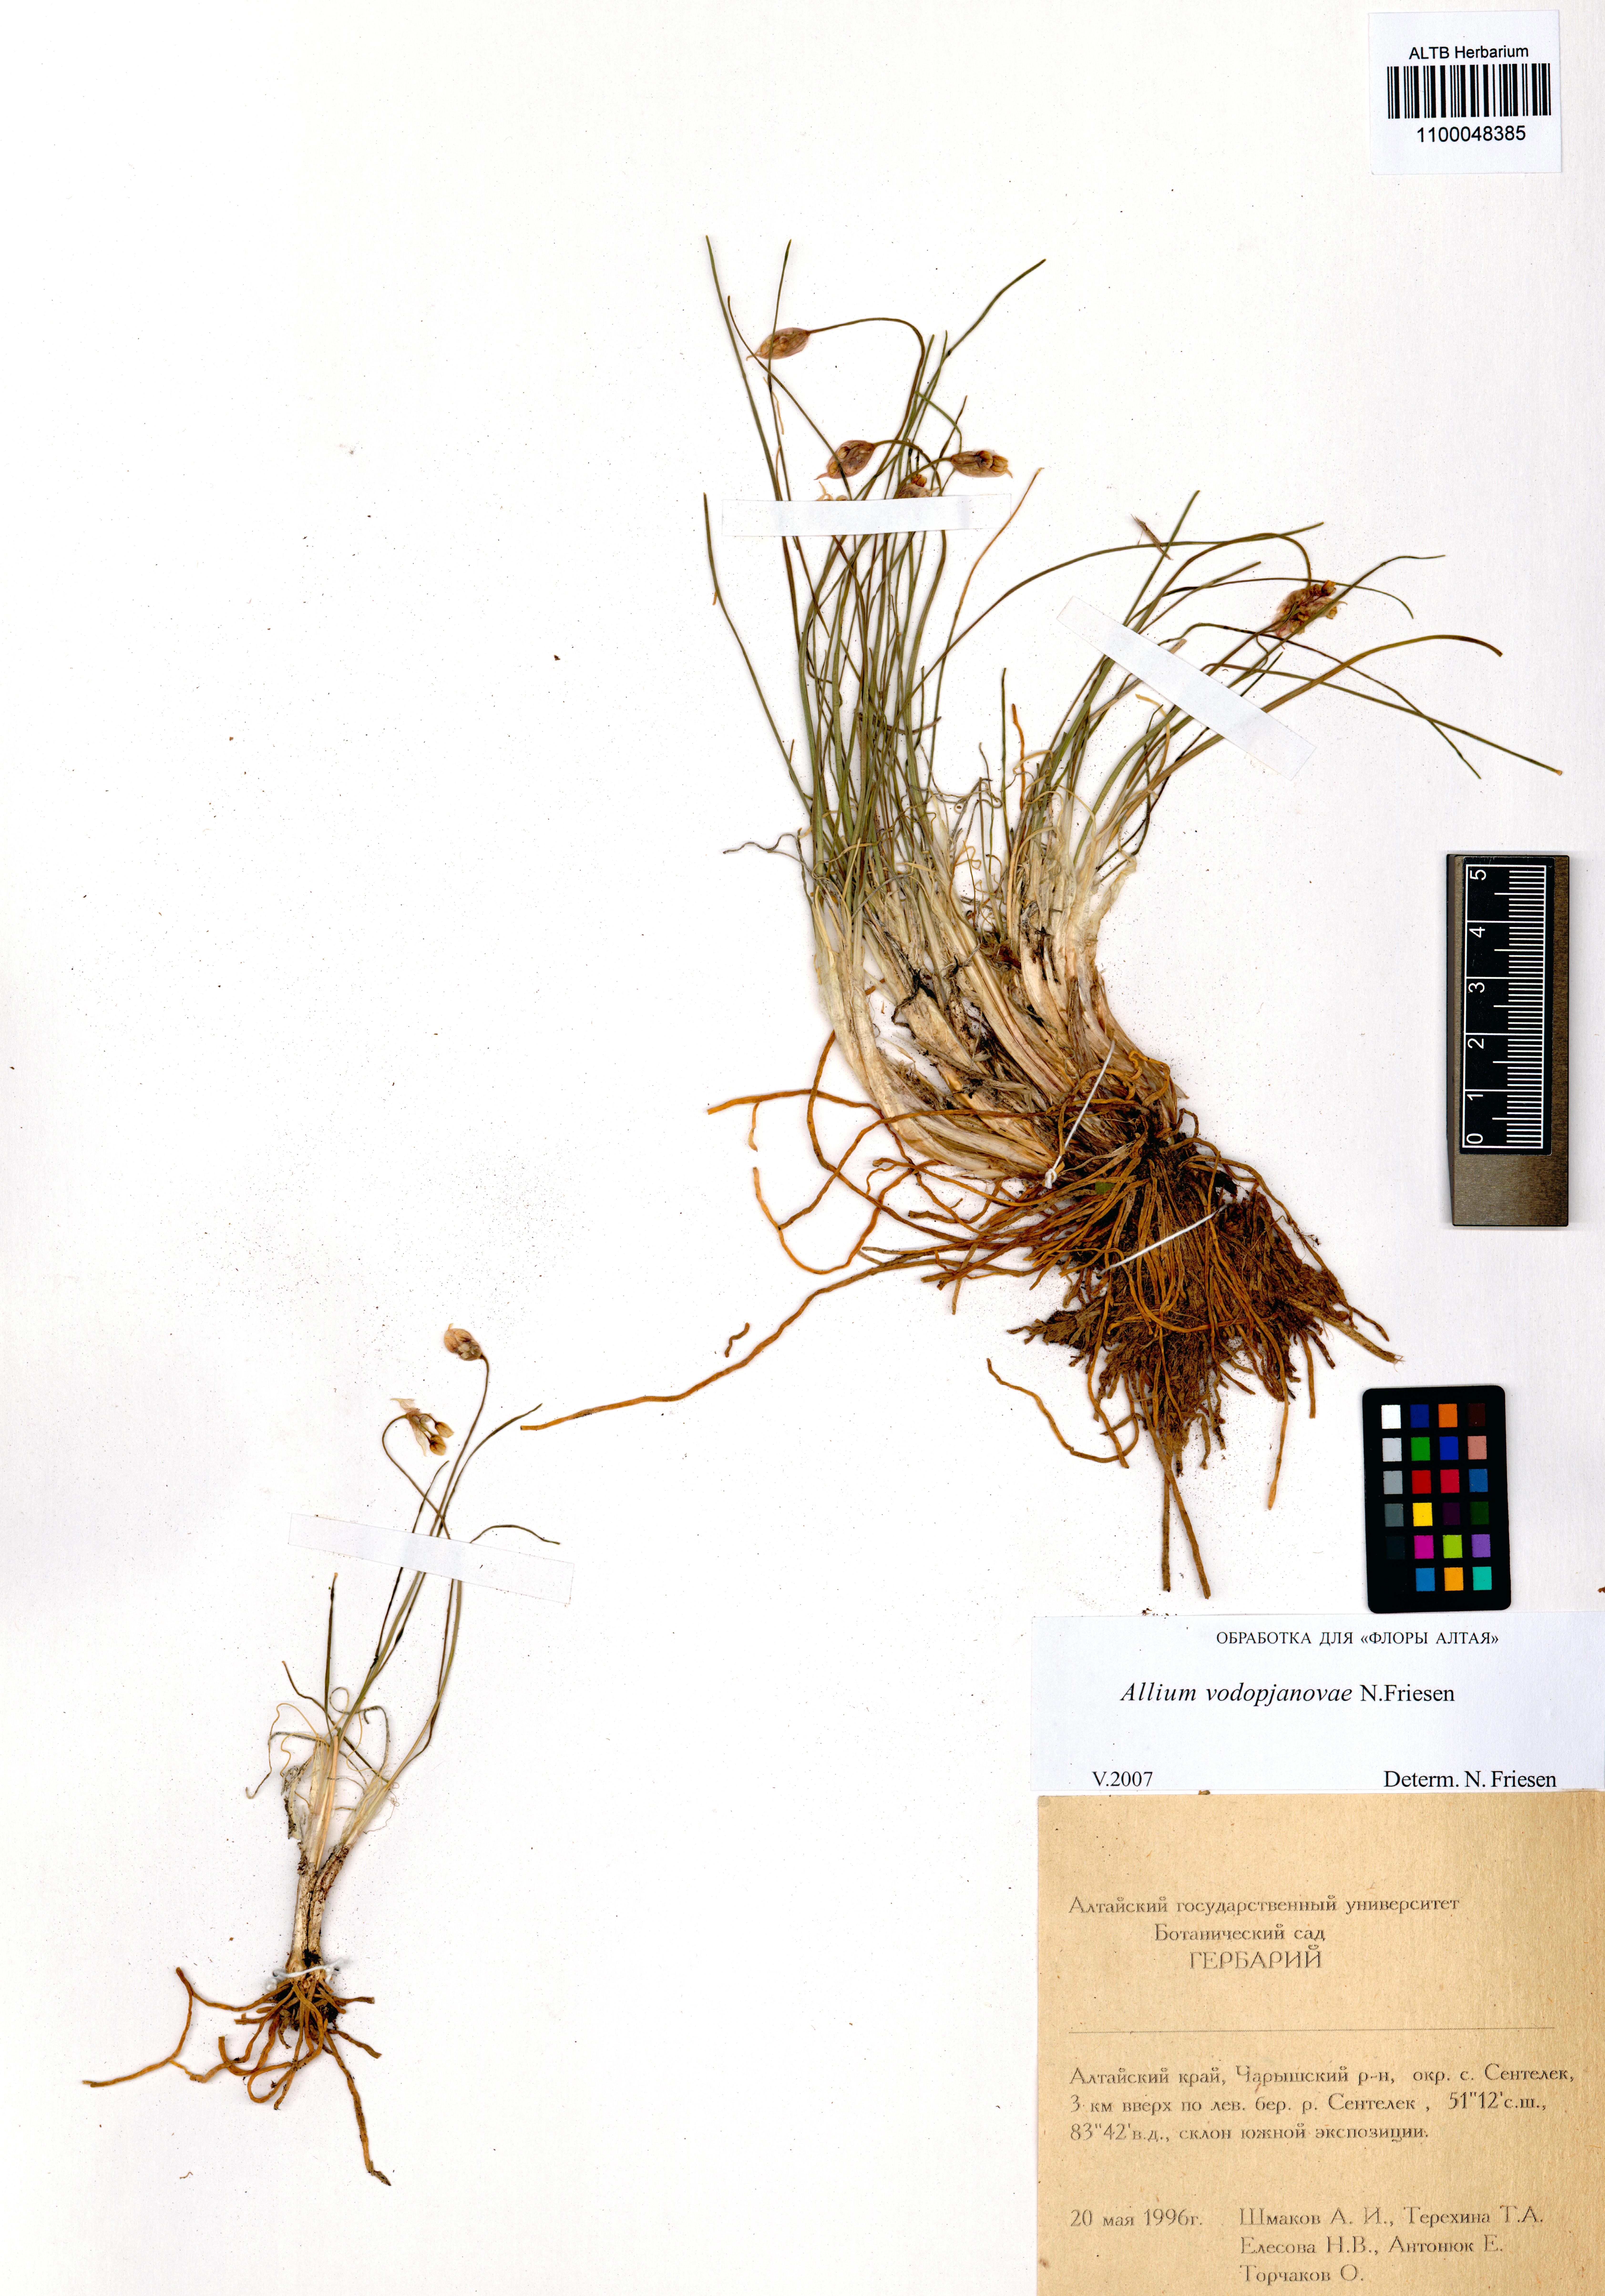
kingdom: Plantae
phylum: Tracheophyta
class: Liliopsida
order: Asparagales
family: Amaryllidaceae
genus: Allium
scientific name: Allium vodopjanovae
